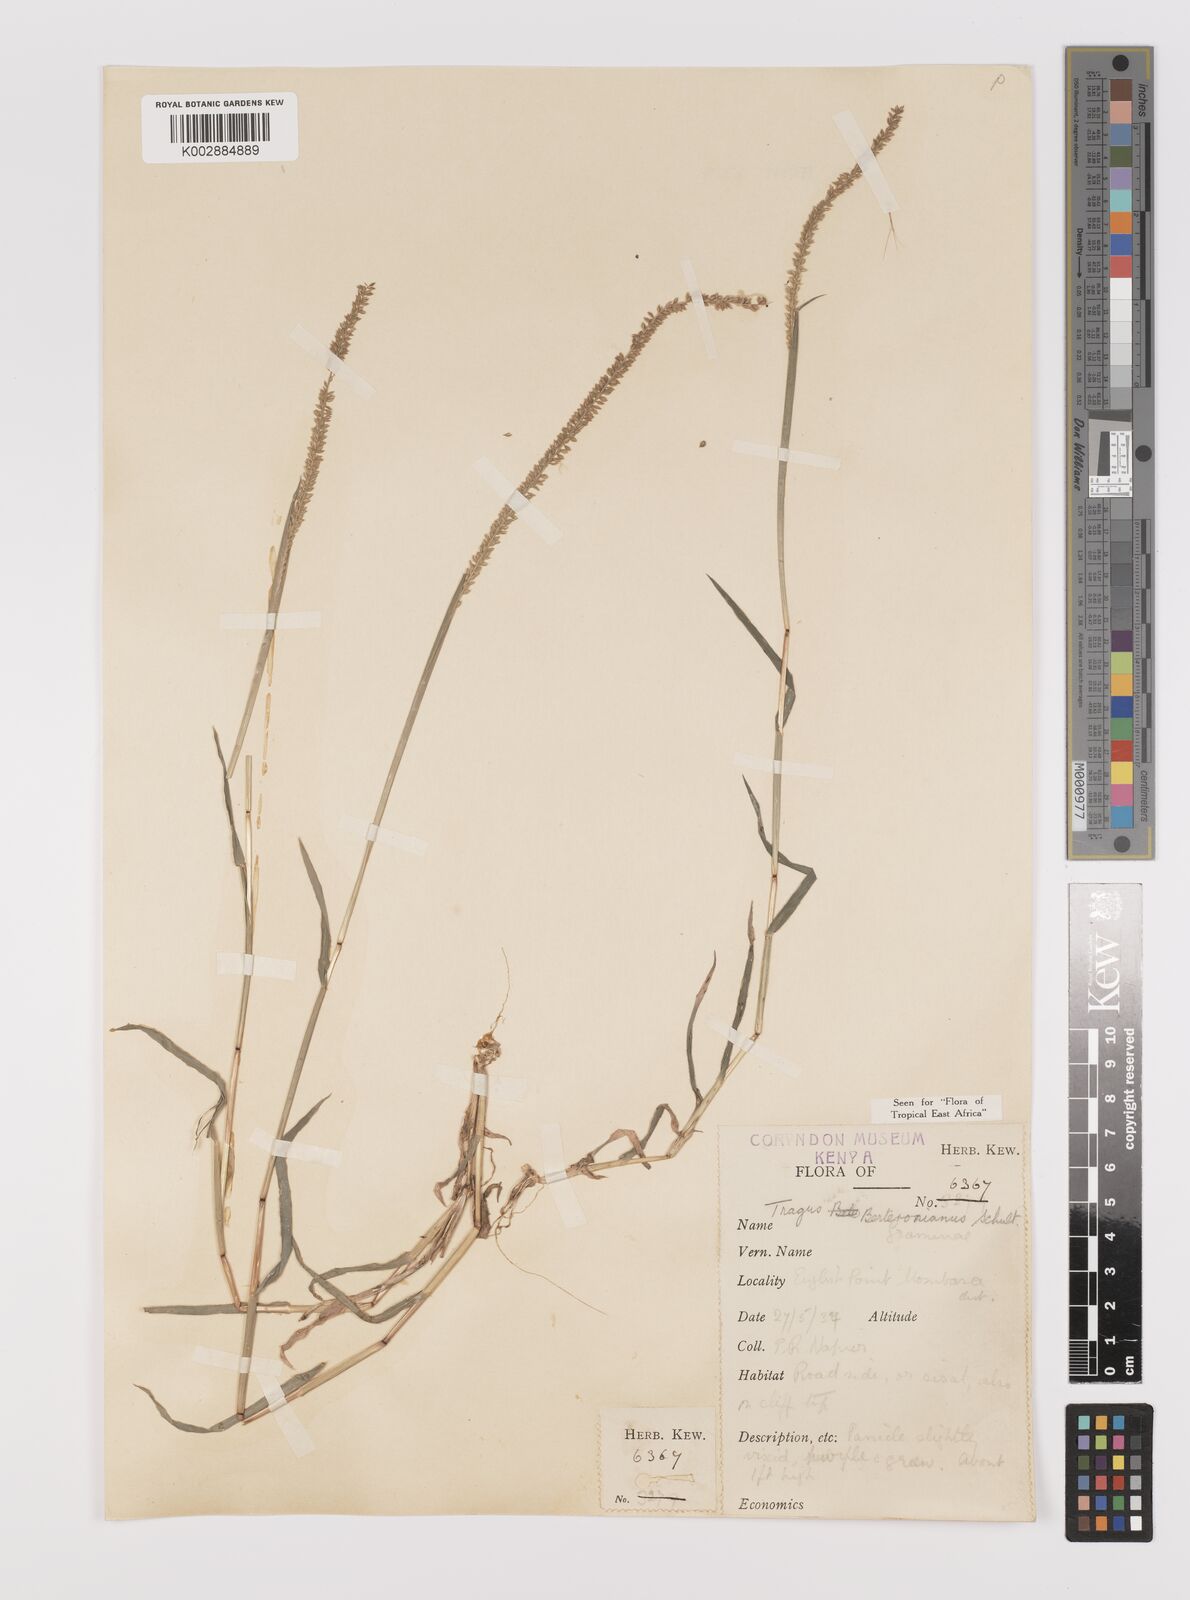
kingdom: Plantae
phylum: Tracheophyta
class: Liliopsida
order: Poales
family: Poaceae
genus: Tragus
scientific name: Tragus berteronianus
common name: African bur-grass
